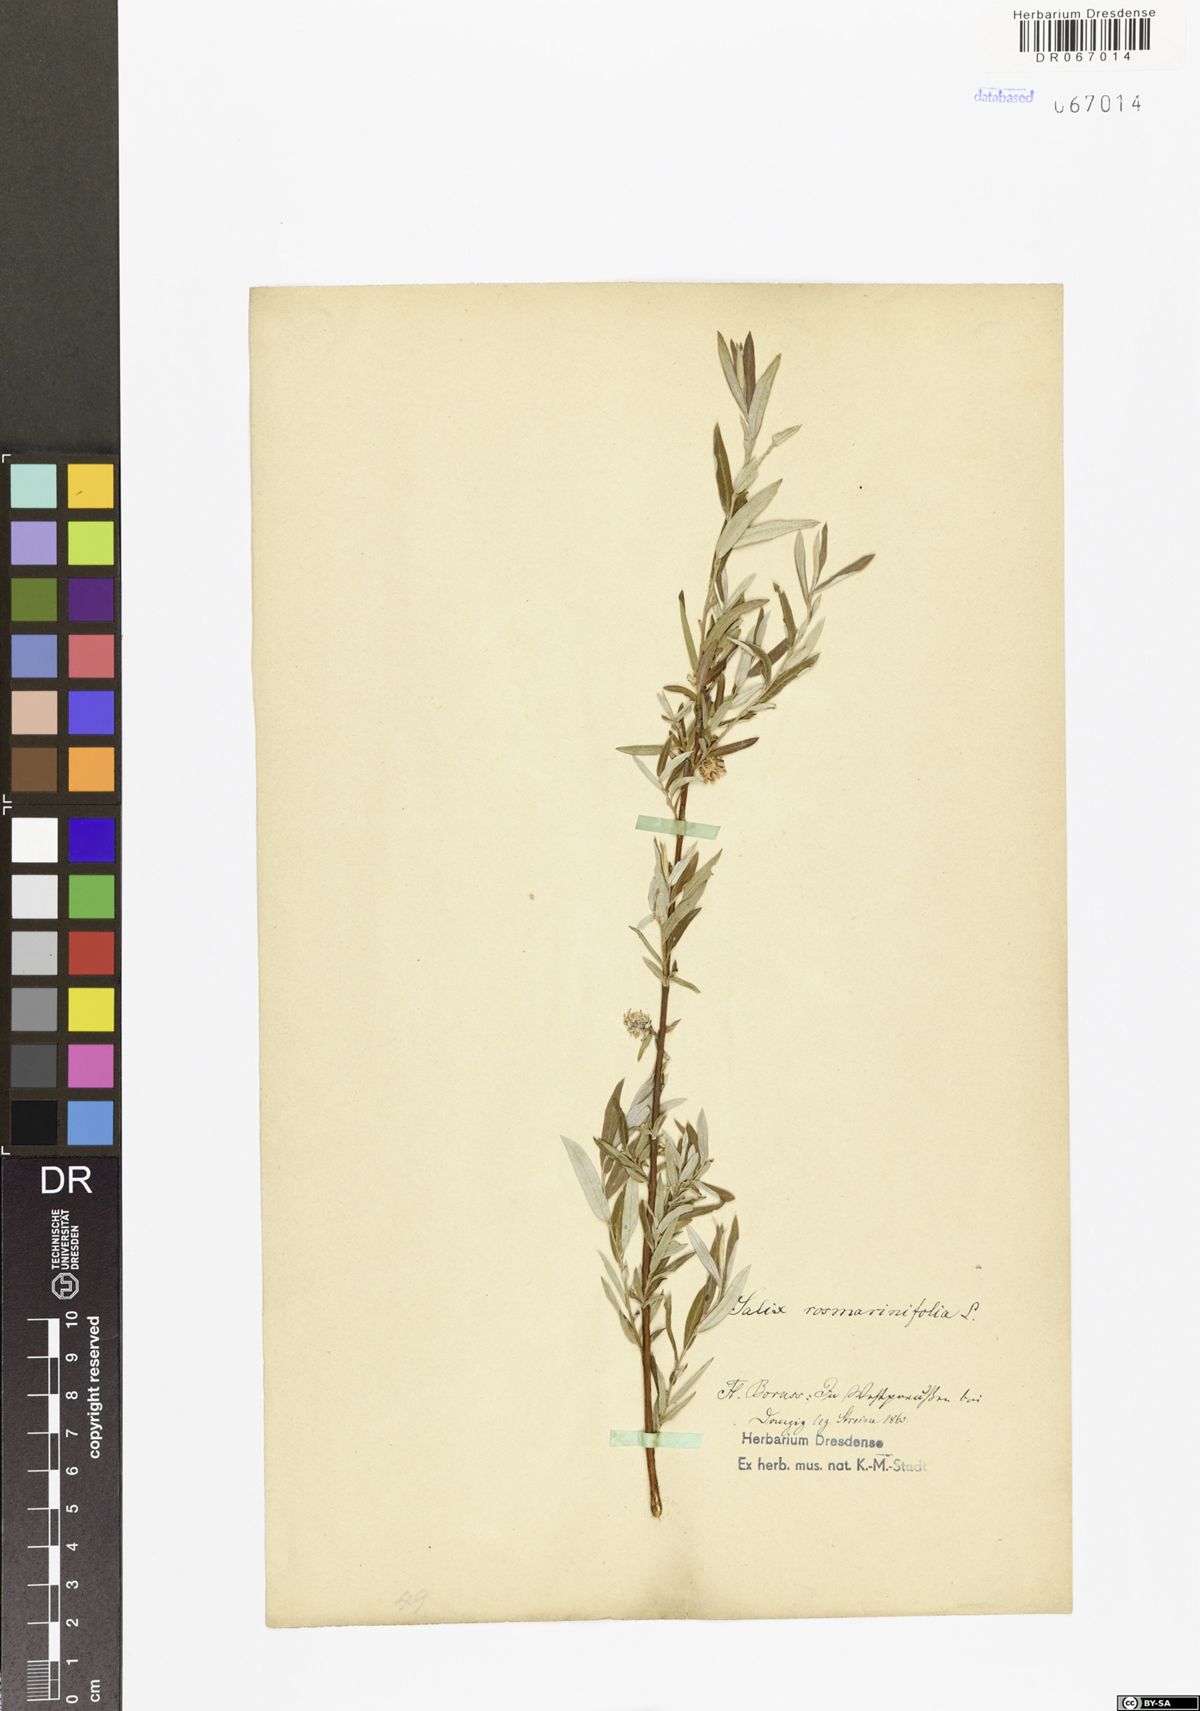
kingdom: Plantae
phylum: Tracheophyta
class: Magnoliopsida
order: Malpighiales
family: Salicaceae
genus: Salix
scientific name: Salix rosmarinifolia
